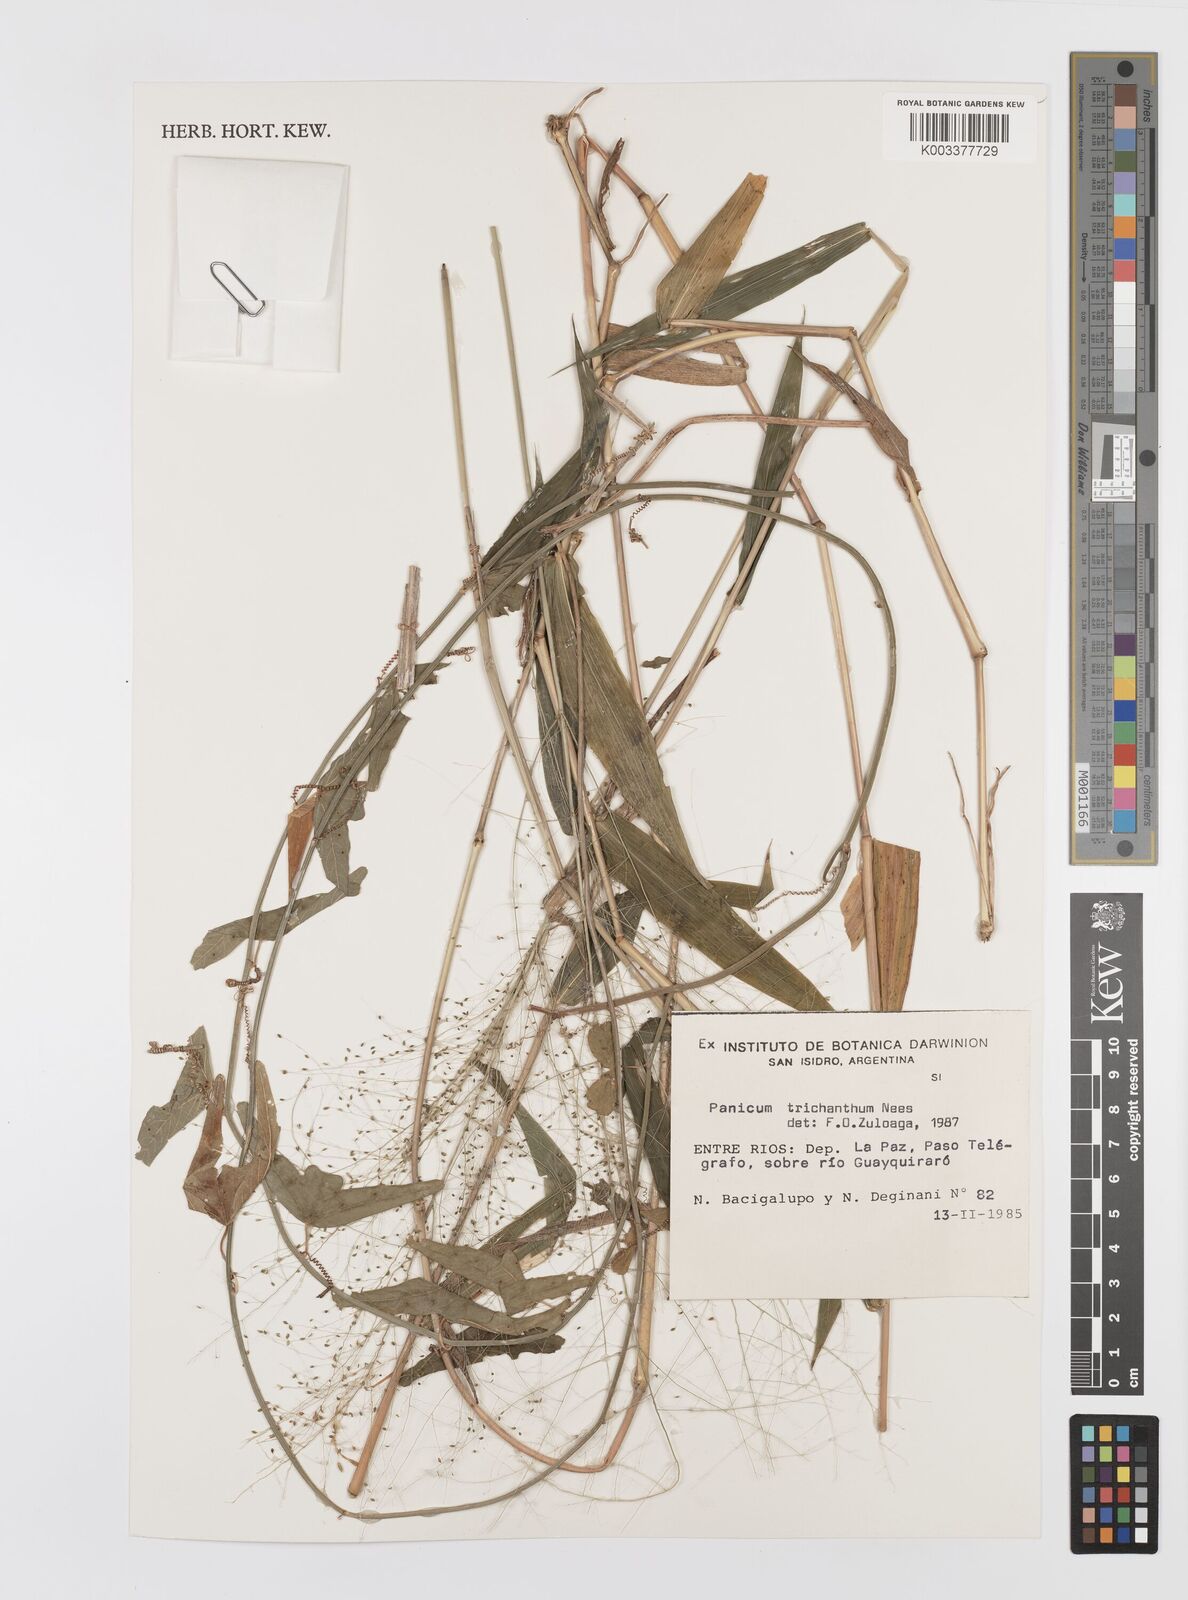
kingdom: Plantae
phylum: Tracheophyta
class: Liliopsida
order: Poales
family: Poaceae
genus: Panicum
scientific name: Panicum trichanthum
